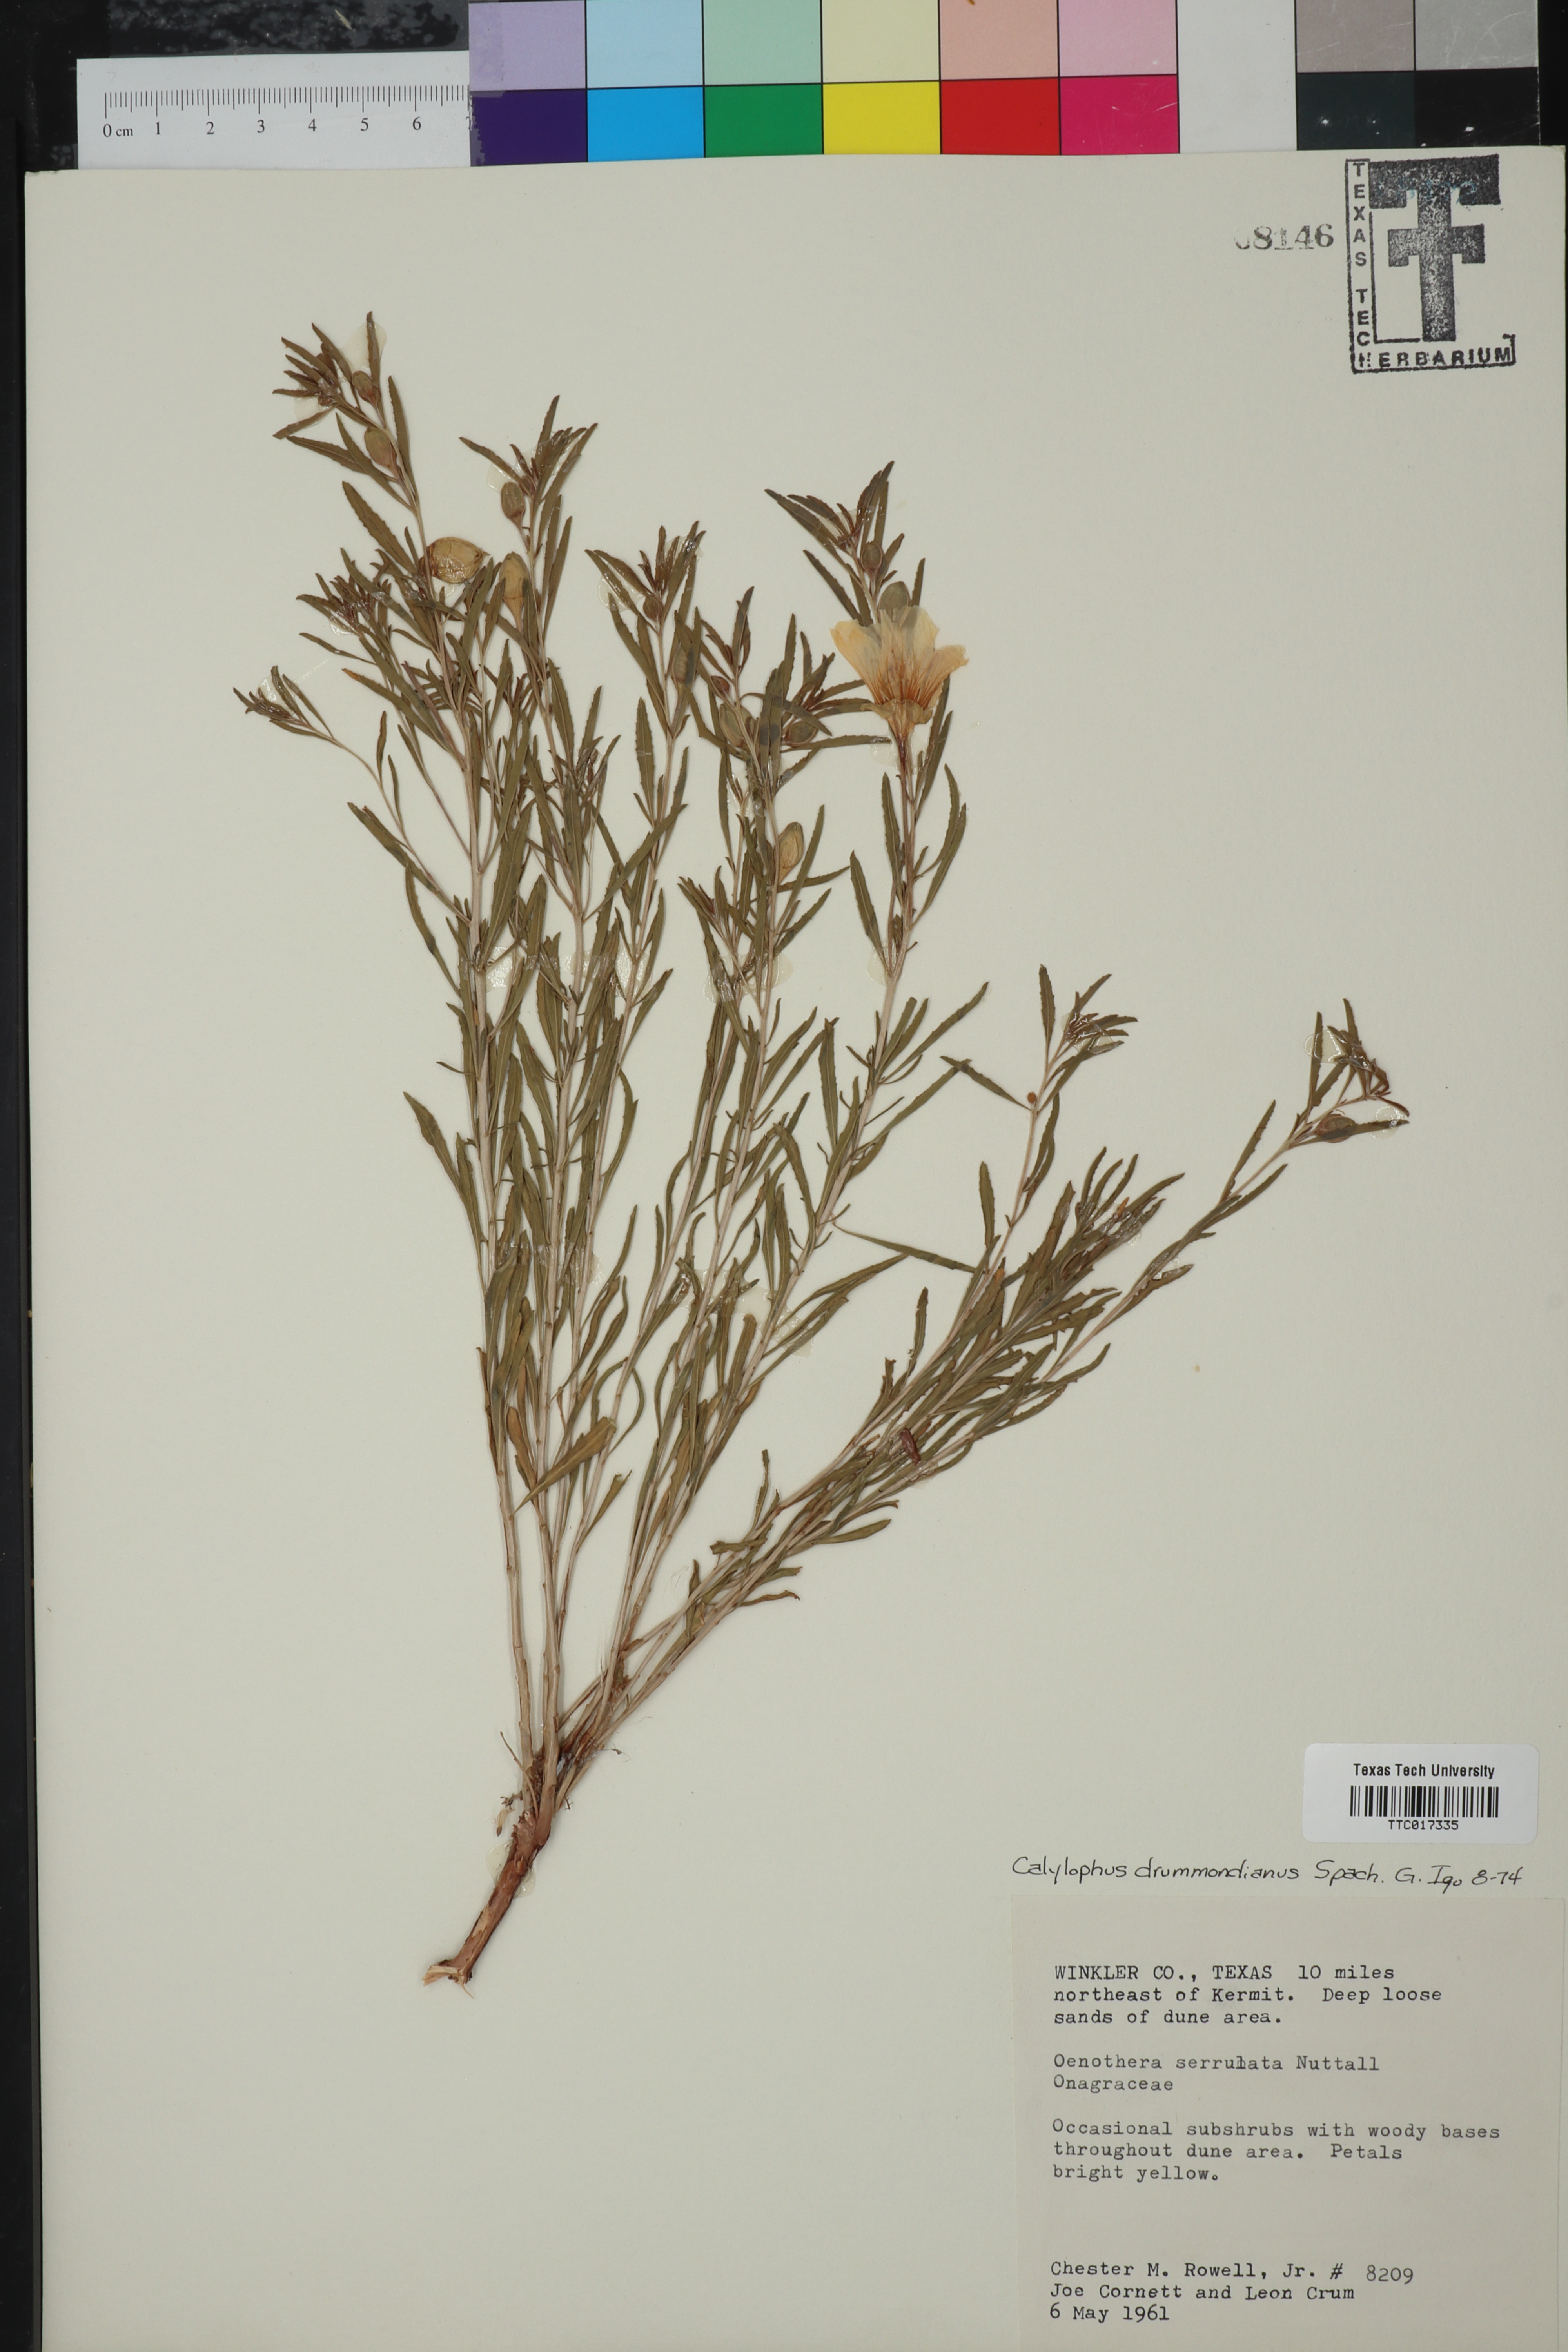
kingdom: Plantae
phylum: Tracheophyta
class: Magnoliopsida
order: Myrtales
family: Onagraceae
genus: Oenothera
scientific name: Oenothera serrulata
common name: Half-shrub calylophus
